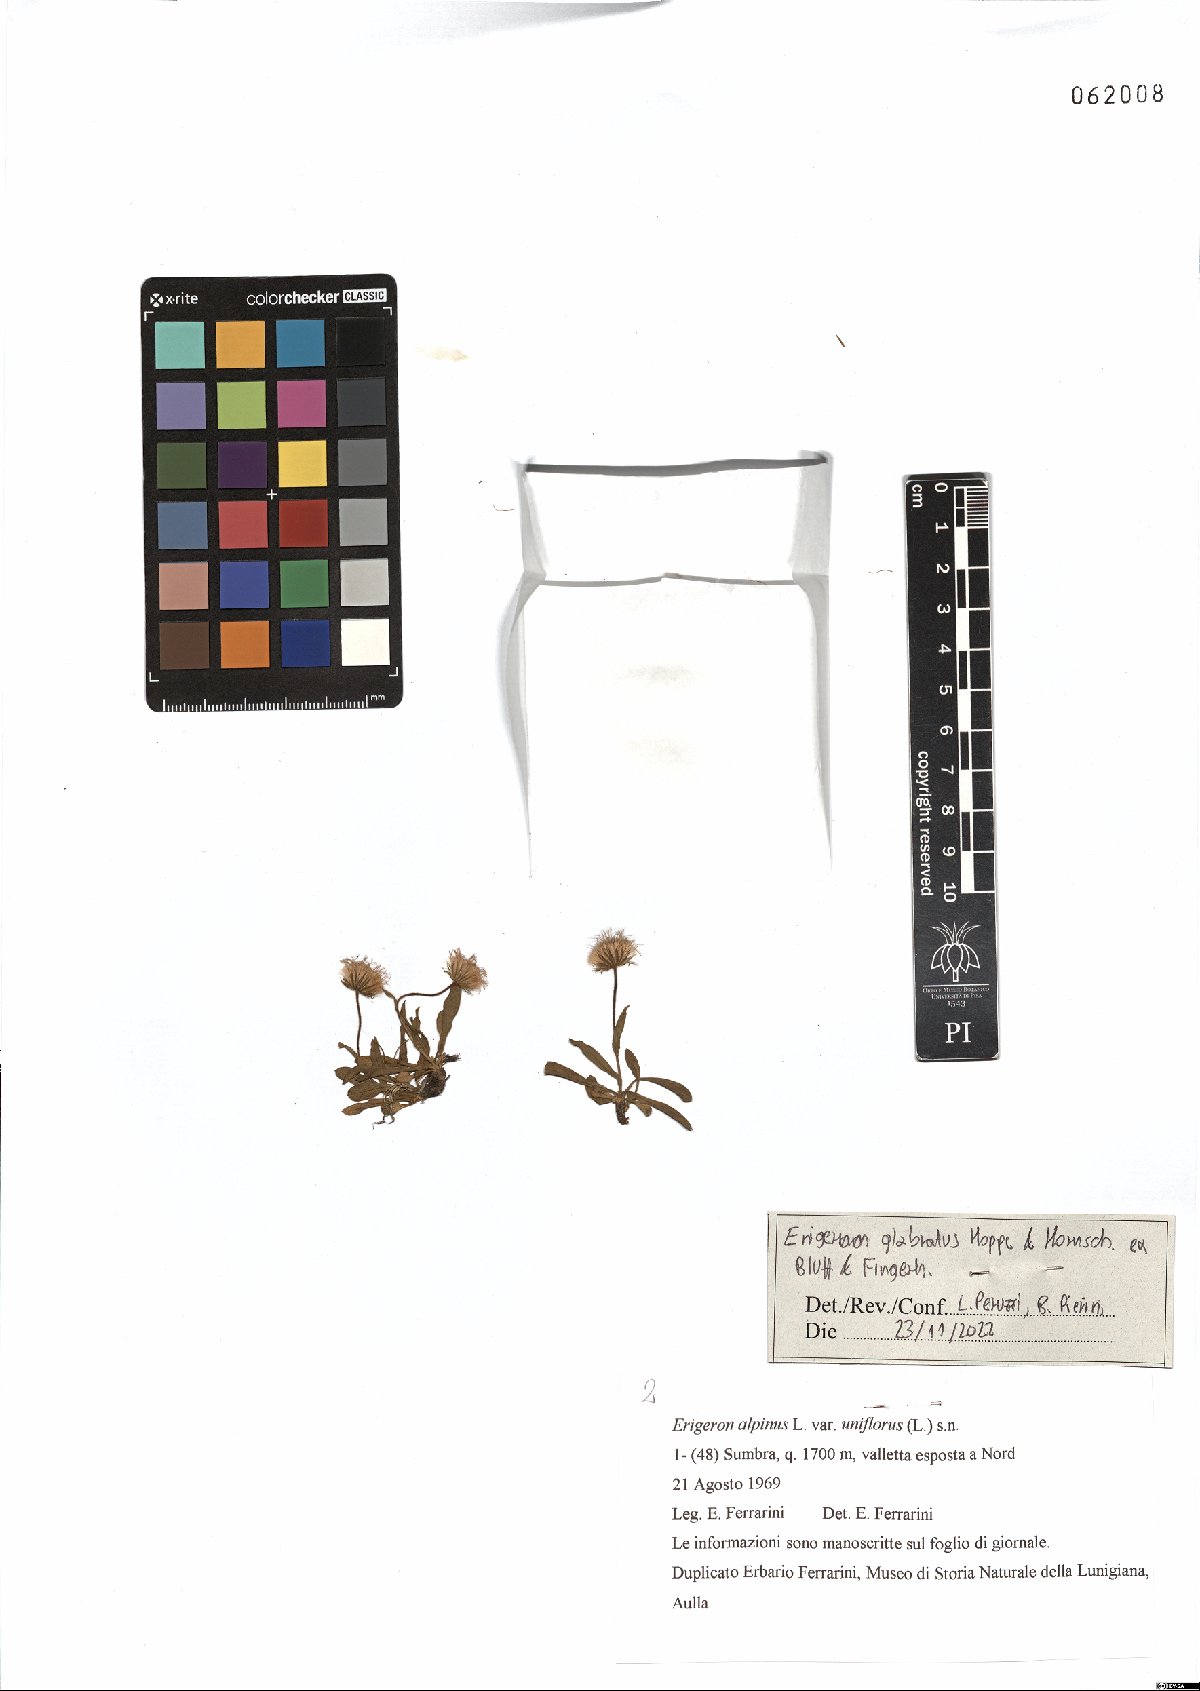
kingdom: Plantae
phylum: Tracheophyta
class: Magnoliopsida
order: Asterales
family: Asteraceae
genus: Erigeron
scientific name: Erigeron glabratus
